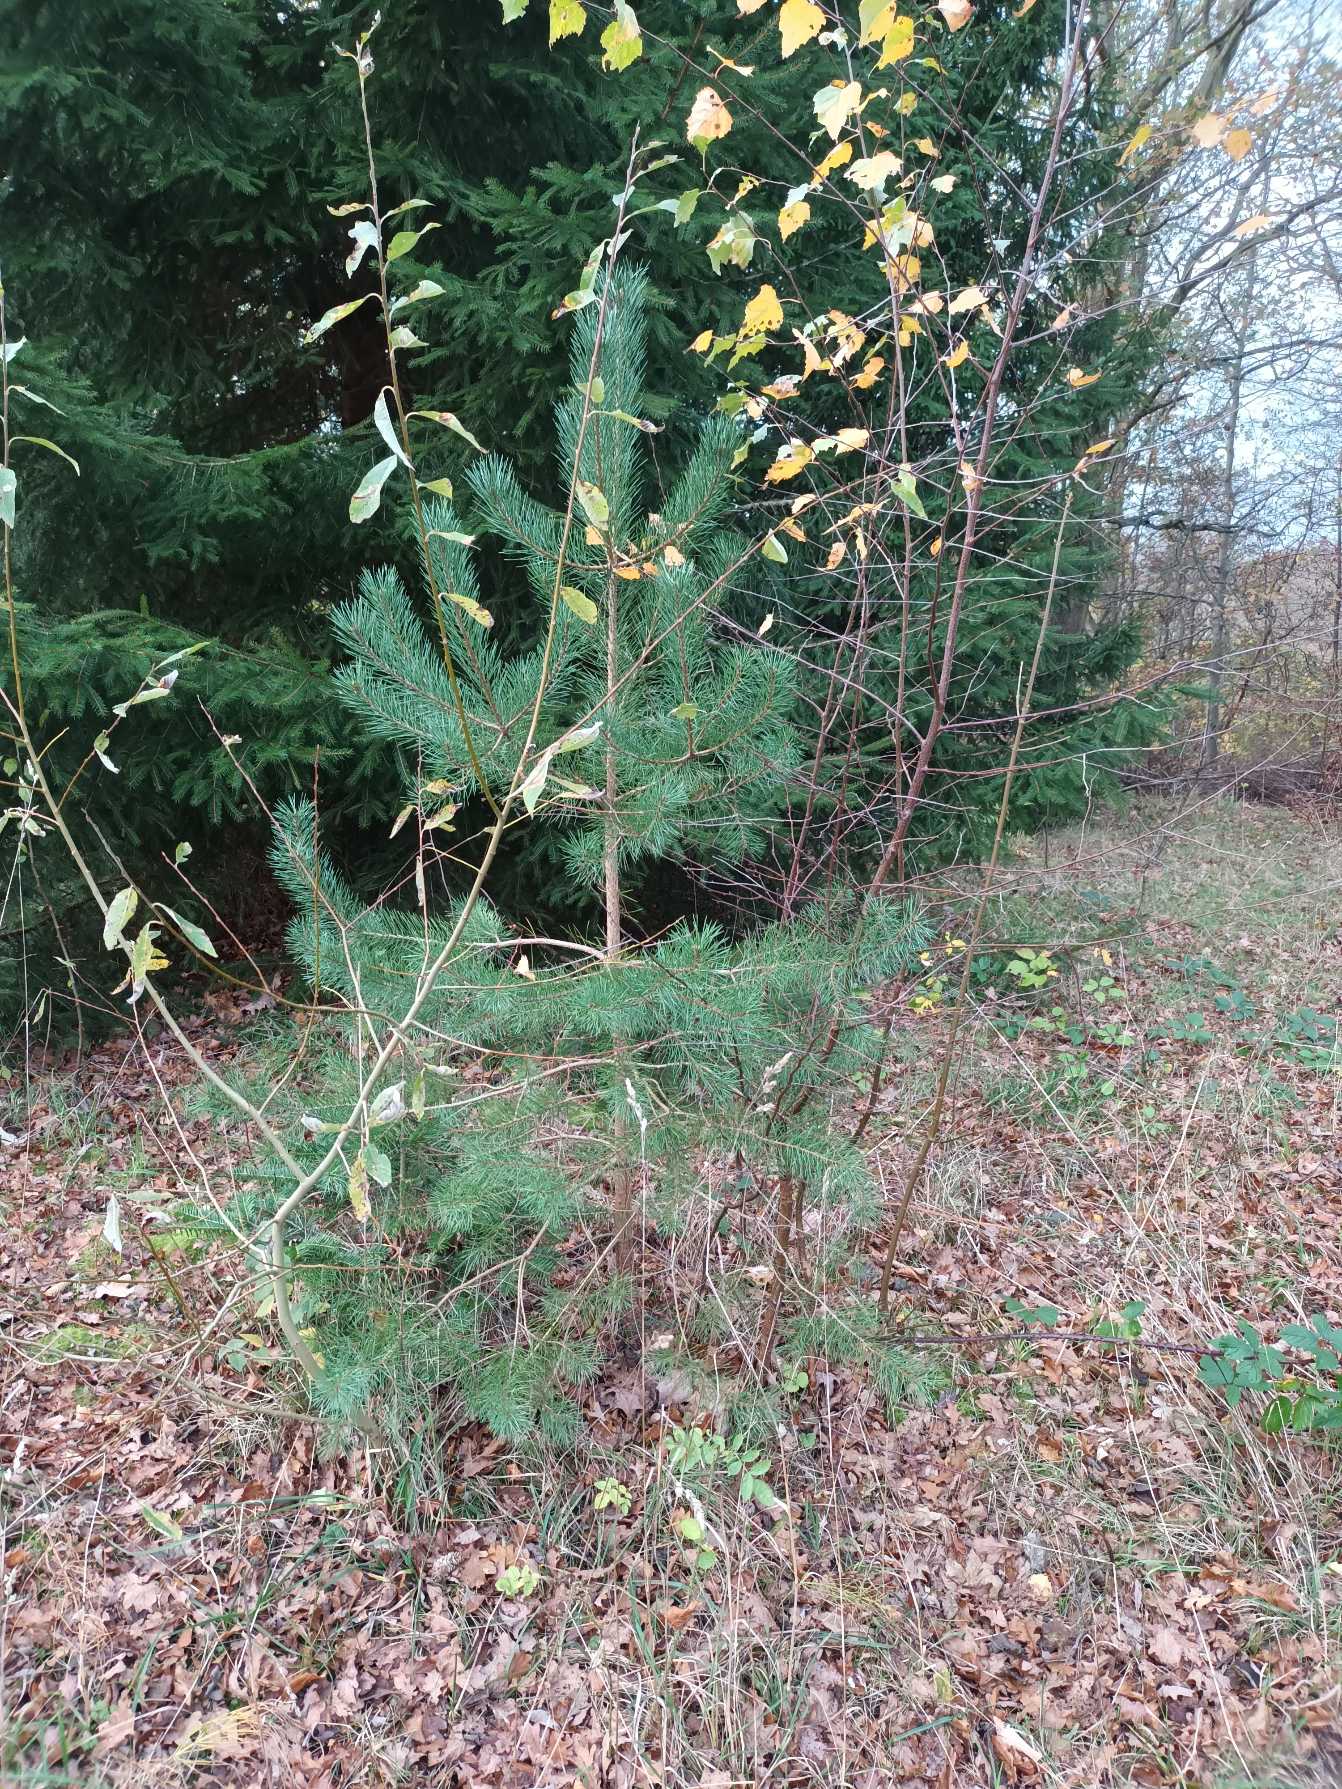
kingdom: Plantae
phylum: Tracheophyta
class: Pinopsida
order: Pinales
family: Pinaceae
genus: Pinus
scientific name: Pinus sylvestris
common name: Skov-fyr
